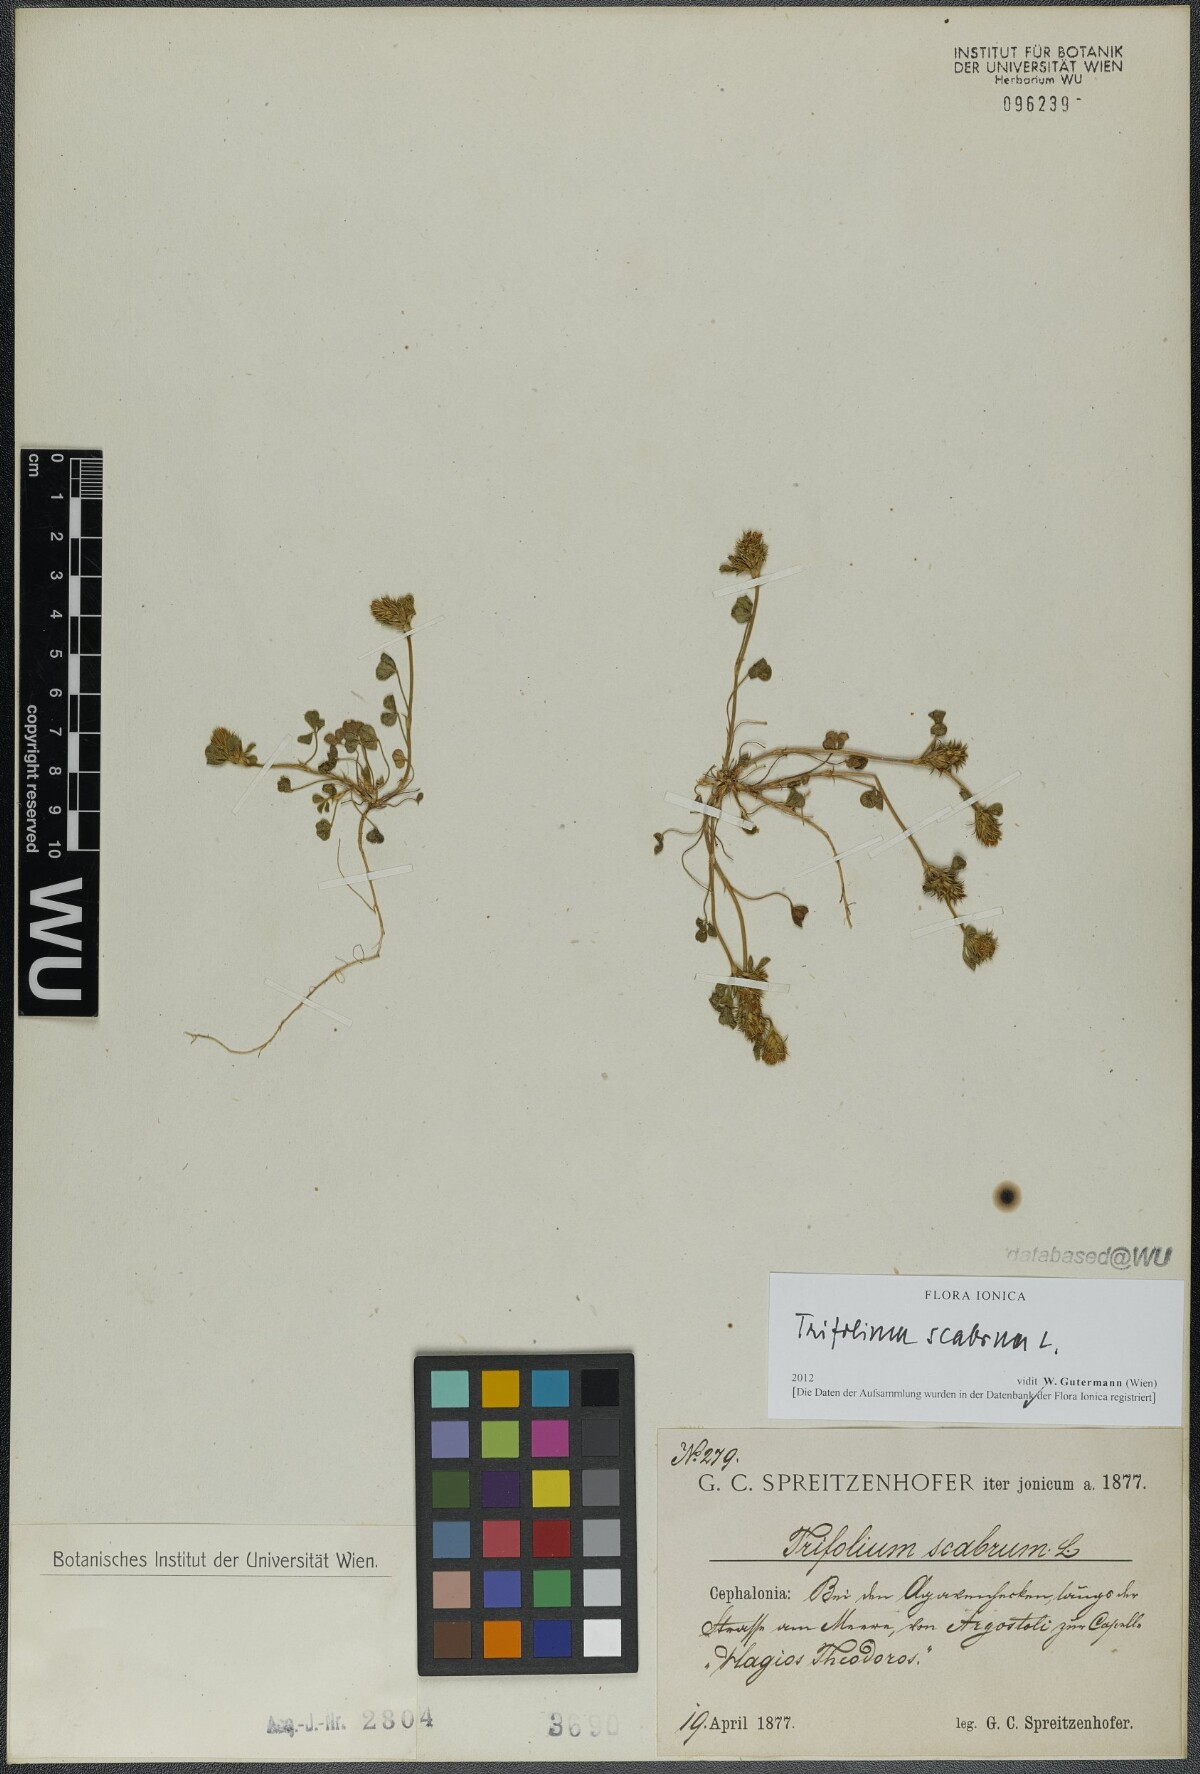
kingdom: Plantae
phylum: Tracheophyta
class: Magnoliopsida
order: Fabales
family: Fabaceae
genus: Trifolium
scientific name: Trifolium scabrum
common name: Rough clover
